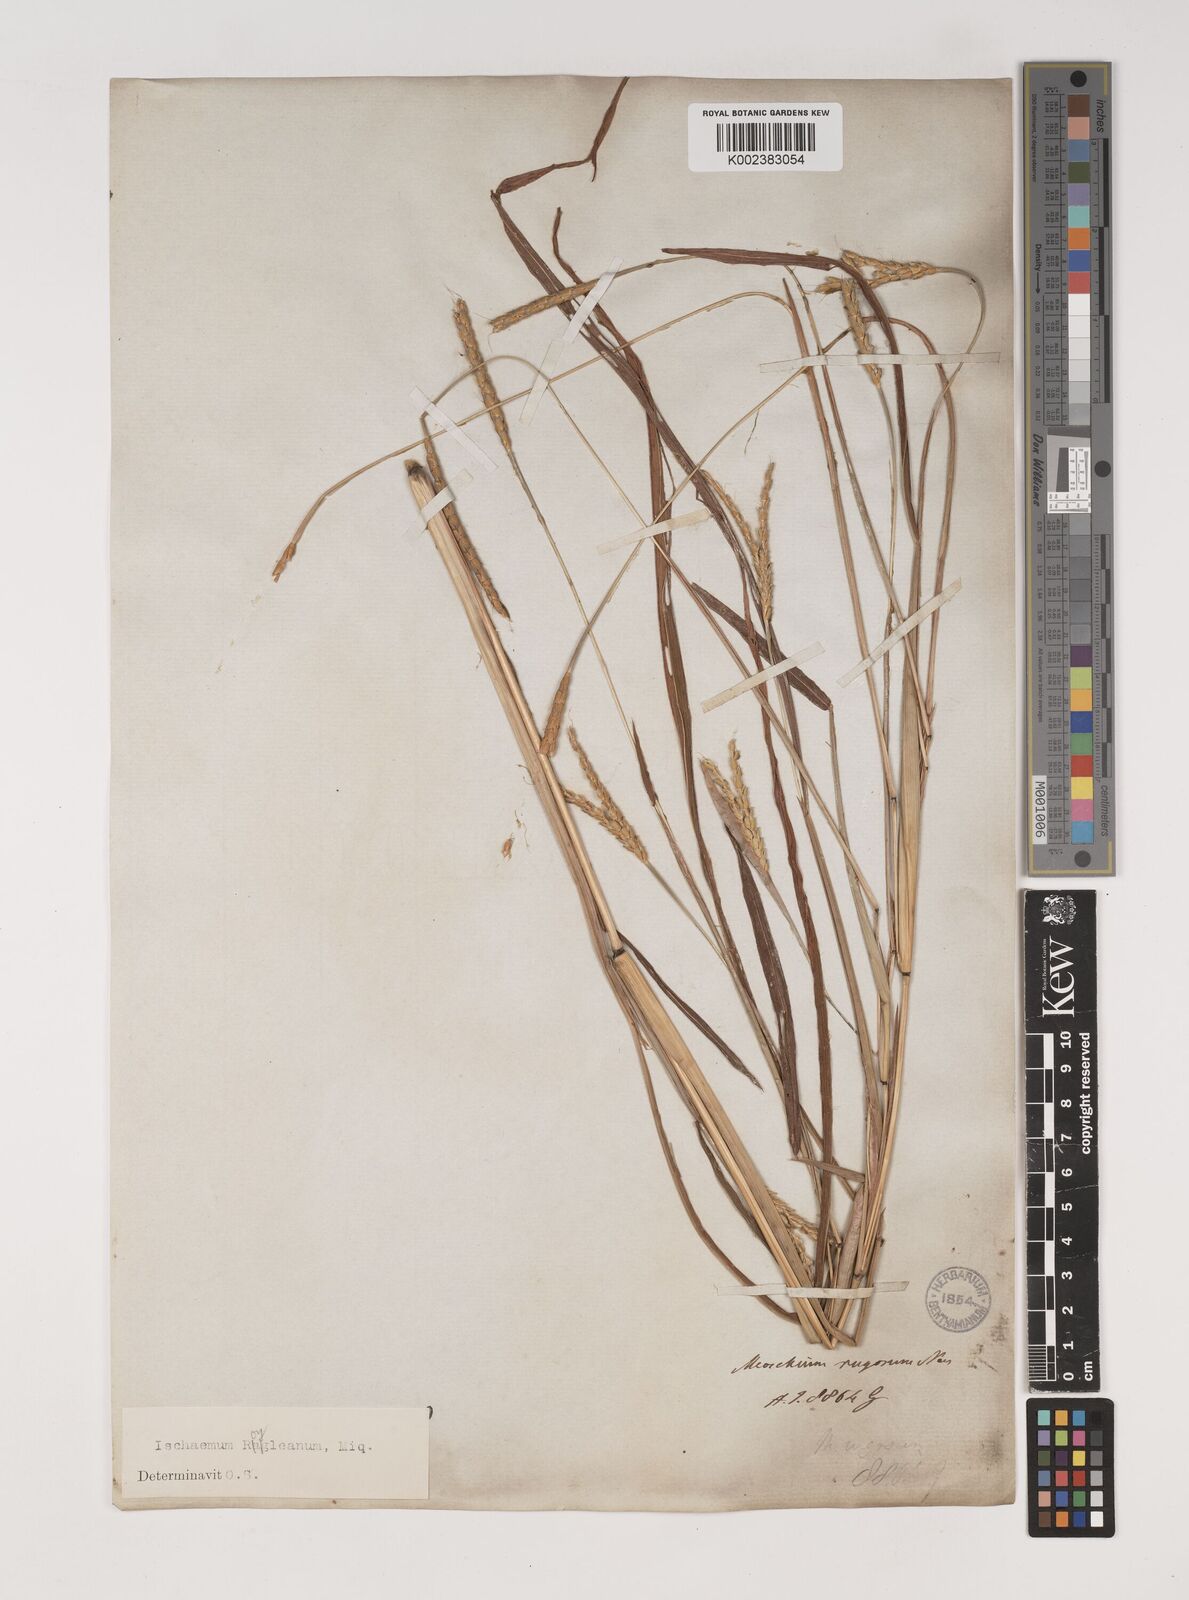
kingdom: Plantae
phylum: Tracheophyta
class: Liliopsida
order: Poales
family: Poaceae
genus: Ischaemum
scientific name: Ischaemum rugosum
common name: Saramatta grass
